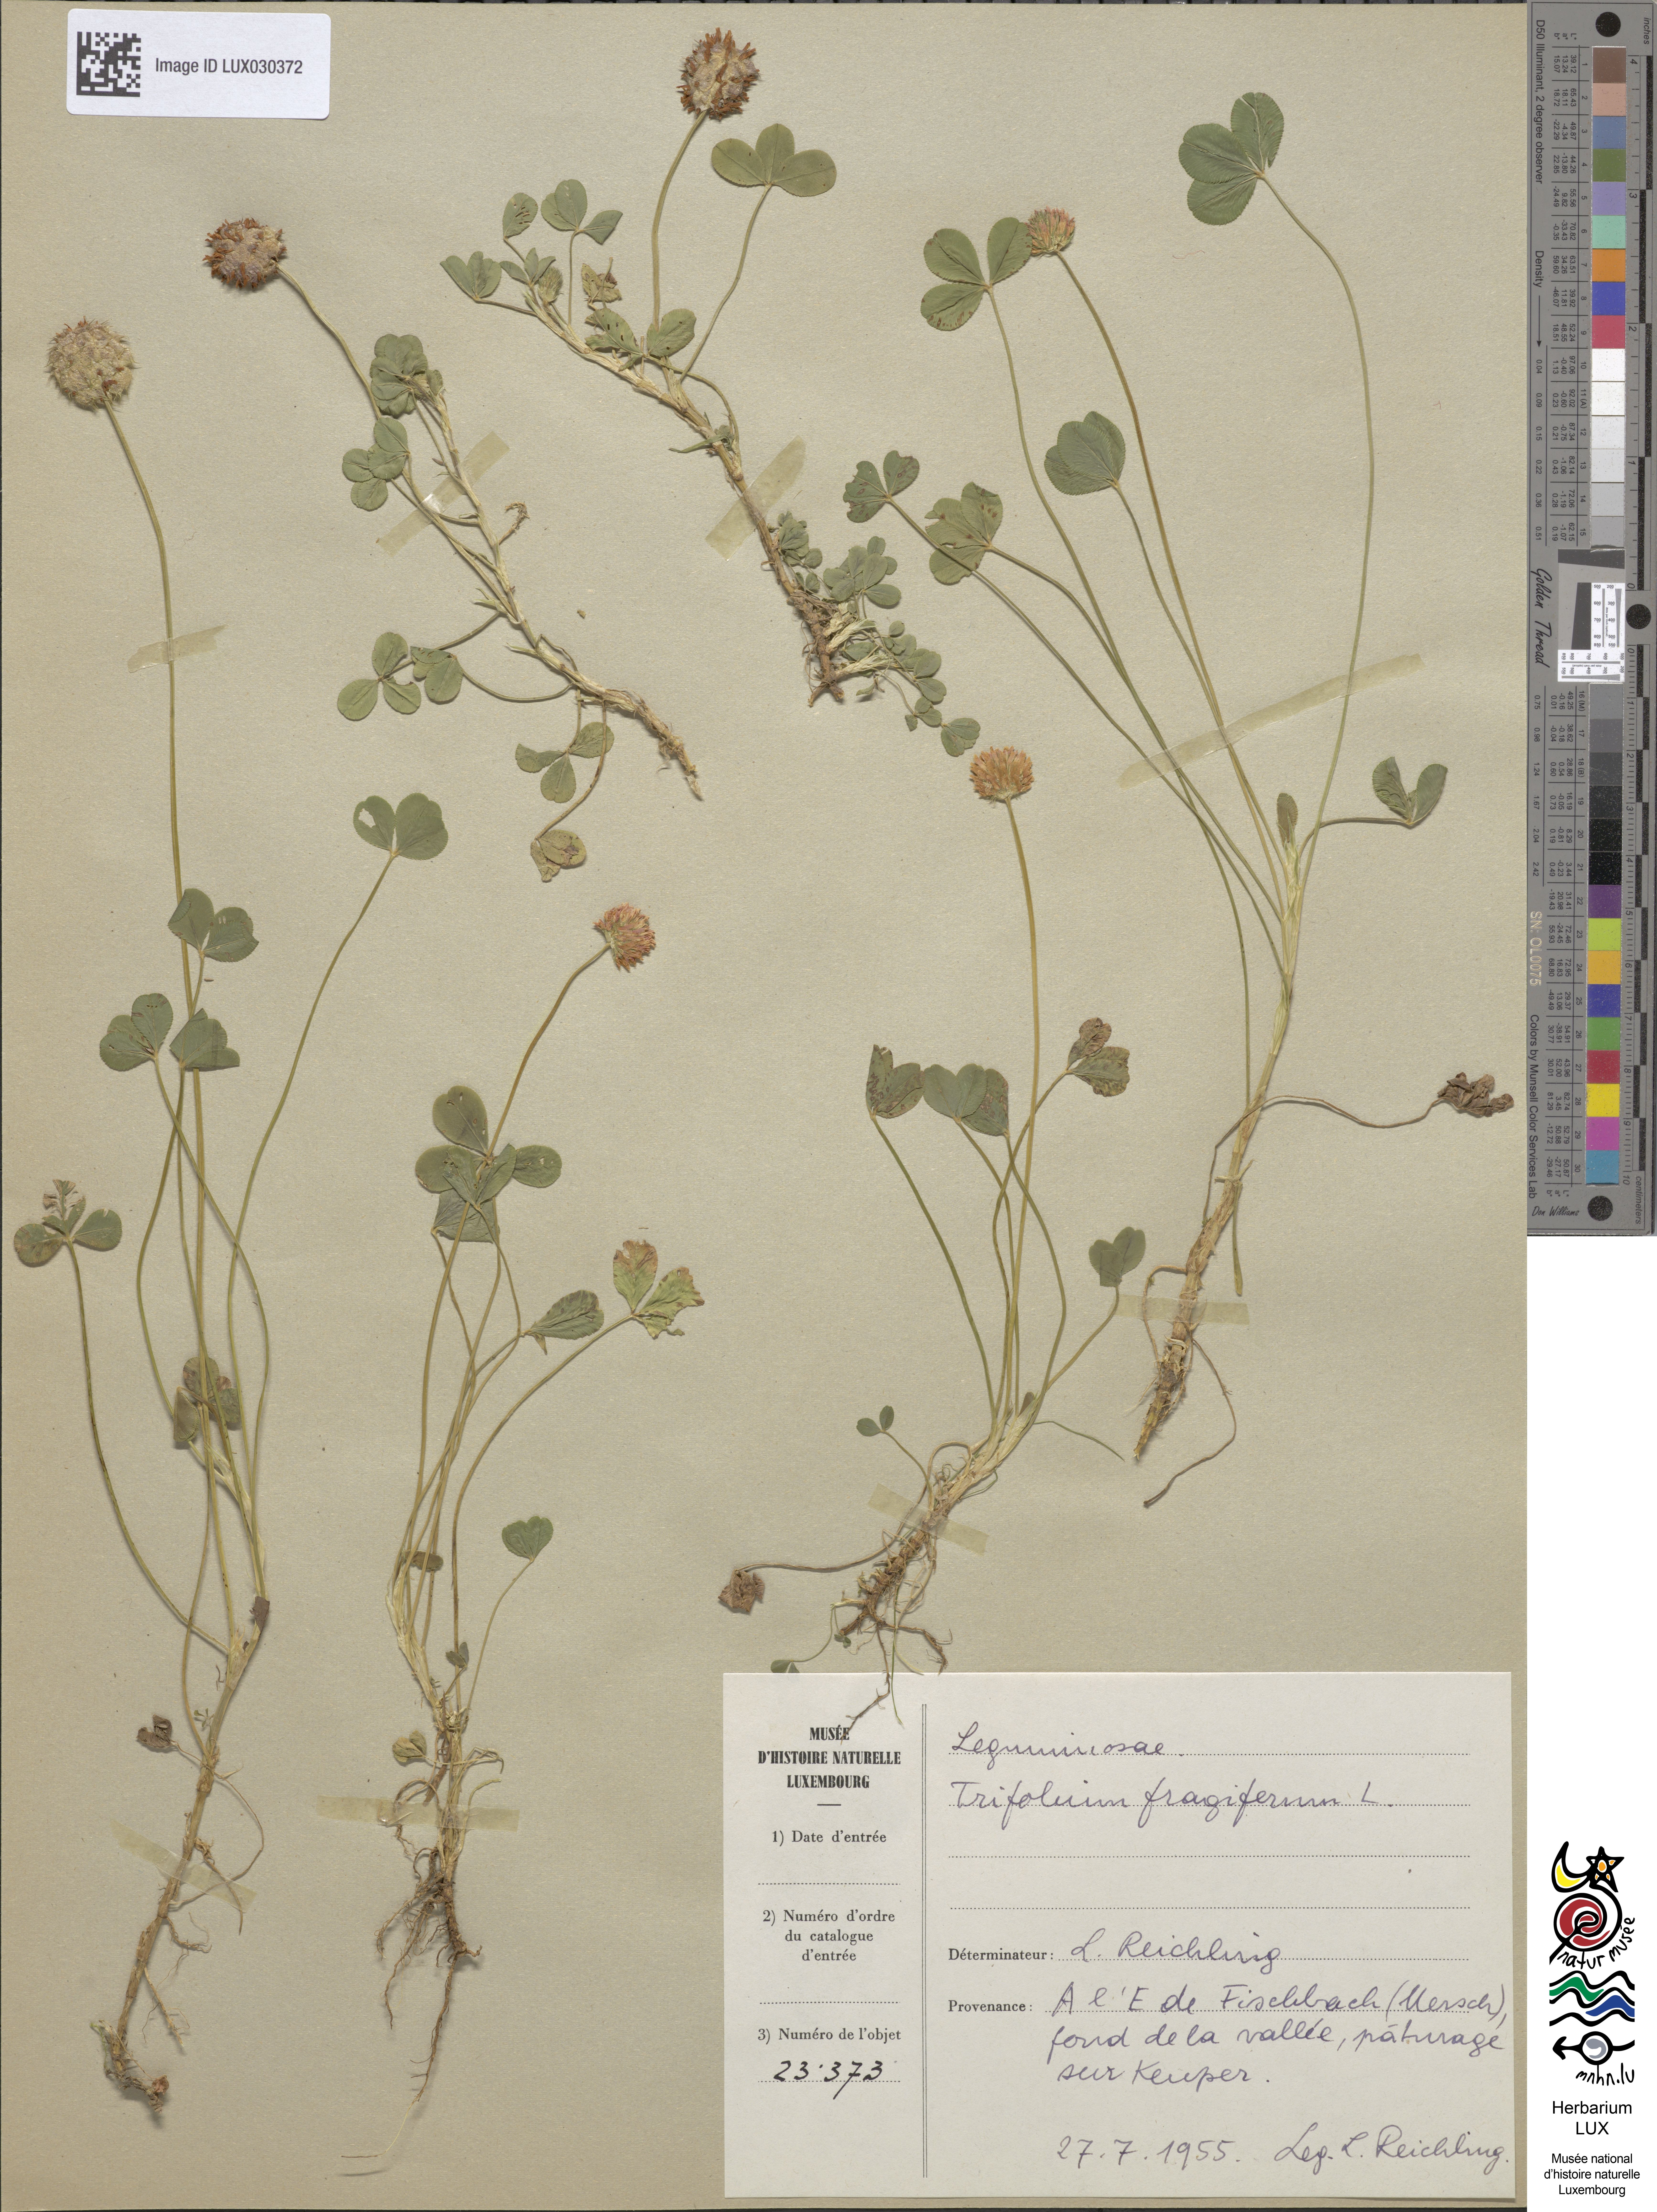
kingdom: Plantae
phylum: Tracheophyta
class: Magnoliopsida
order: Fabales
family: Fabaceae
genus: Trifolium
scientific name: Trifolium fragiferum
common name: Strawberry clover
